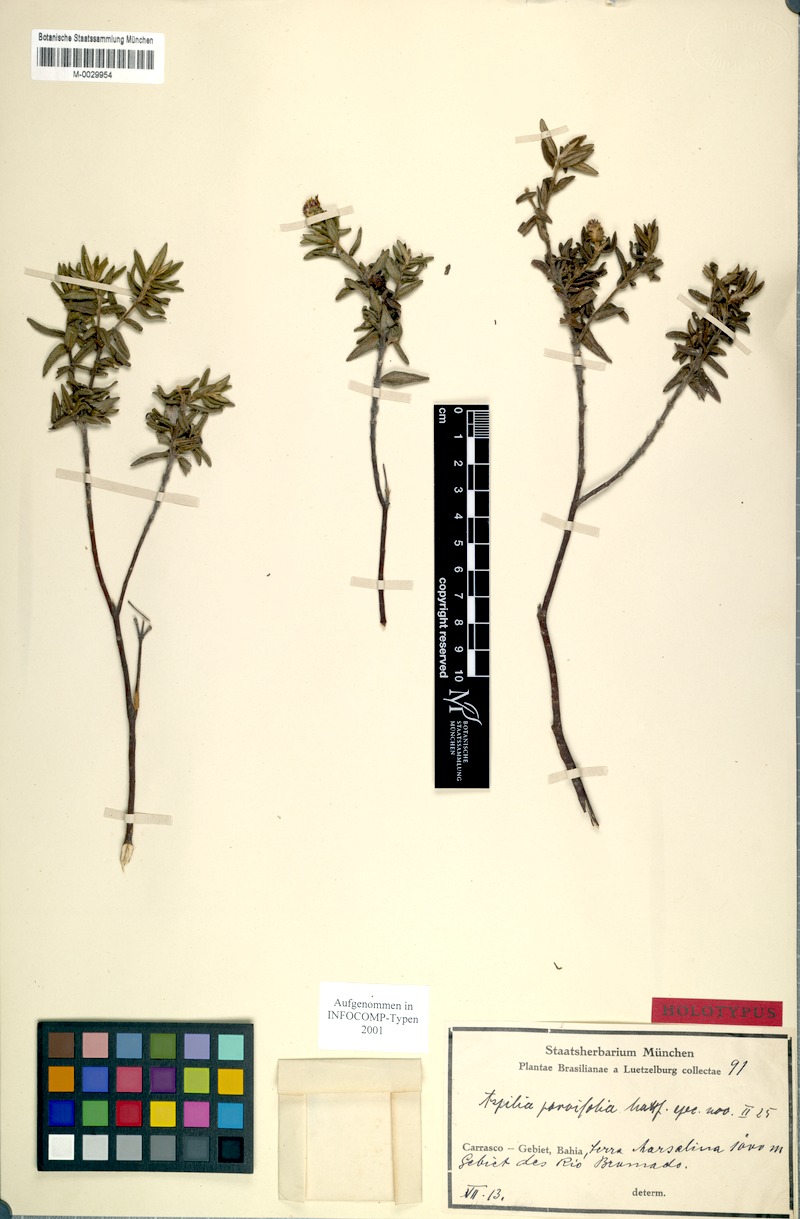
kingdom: Plantae
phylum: Tracheophyta
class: Magnoliopsida
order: Asterales
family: Asteraceae
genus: Aspilia
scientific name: Aspilia foliosa
